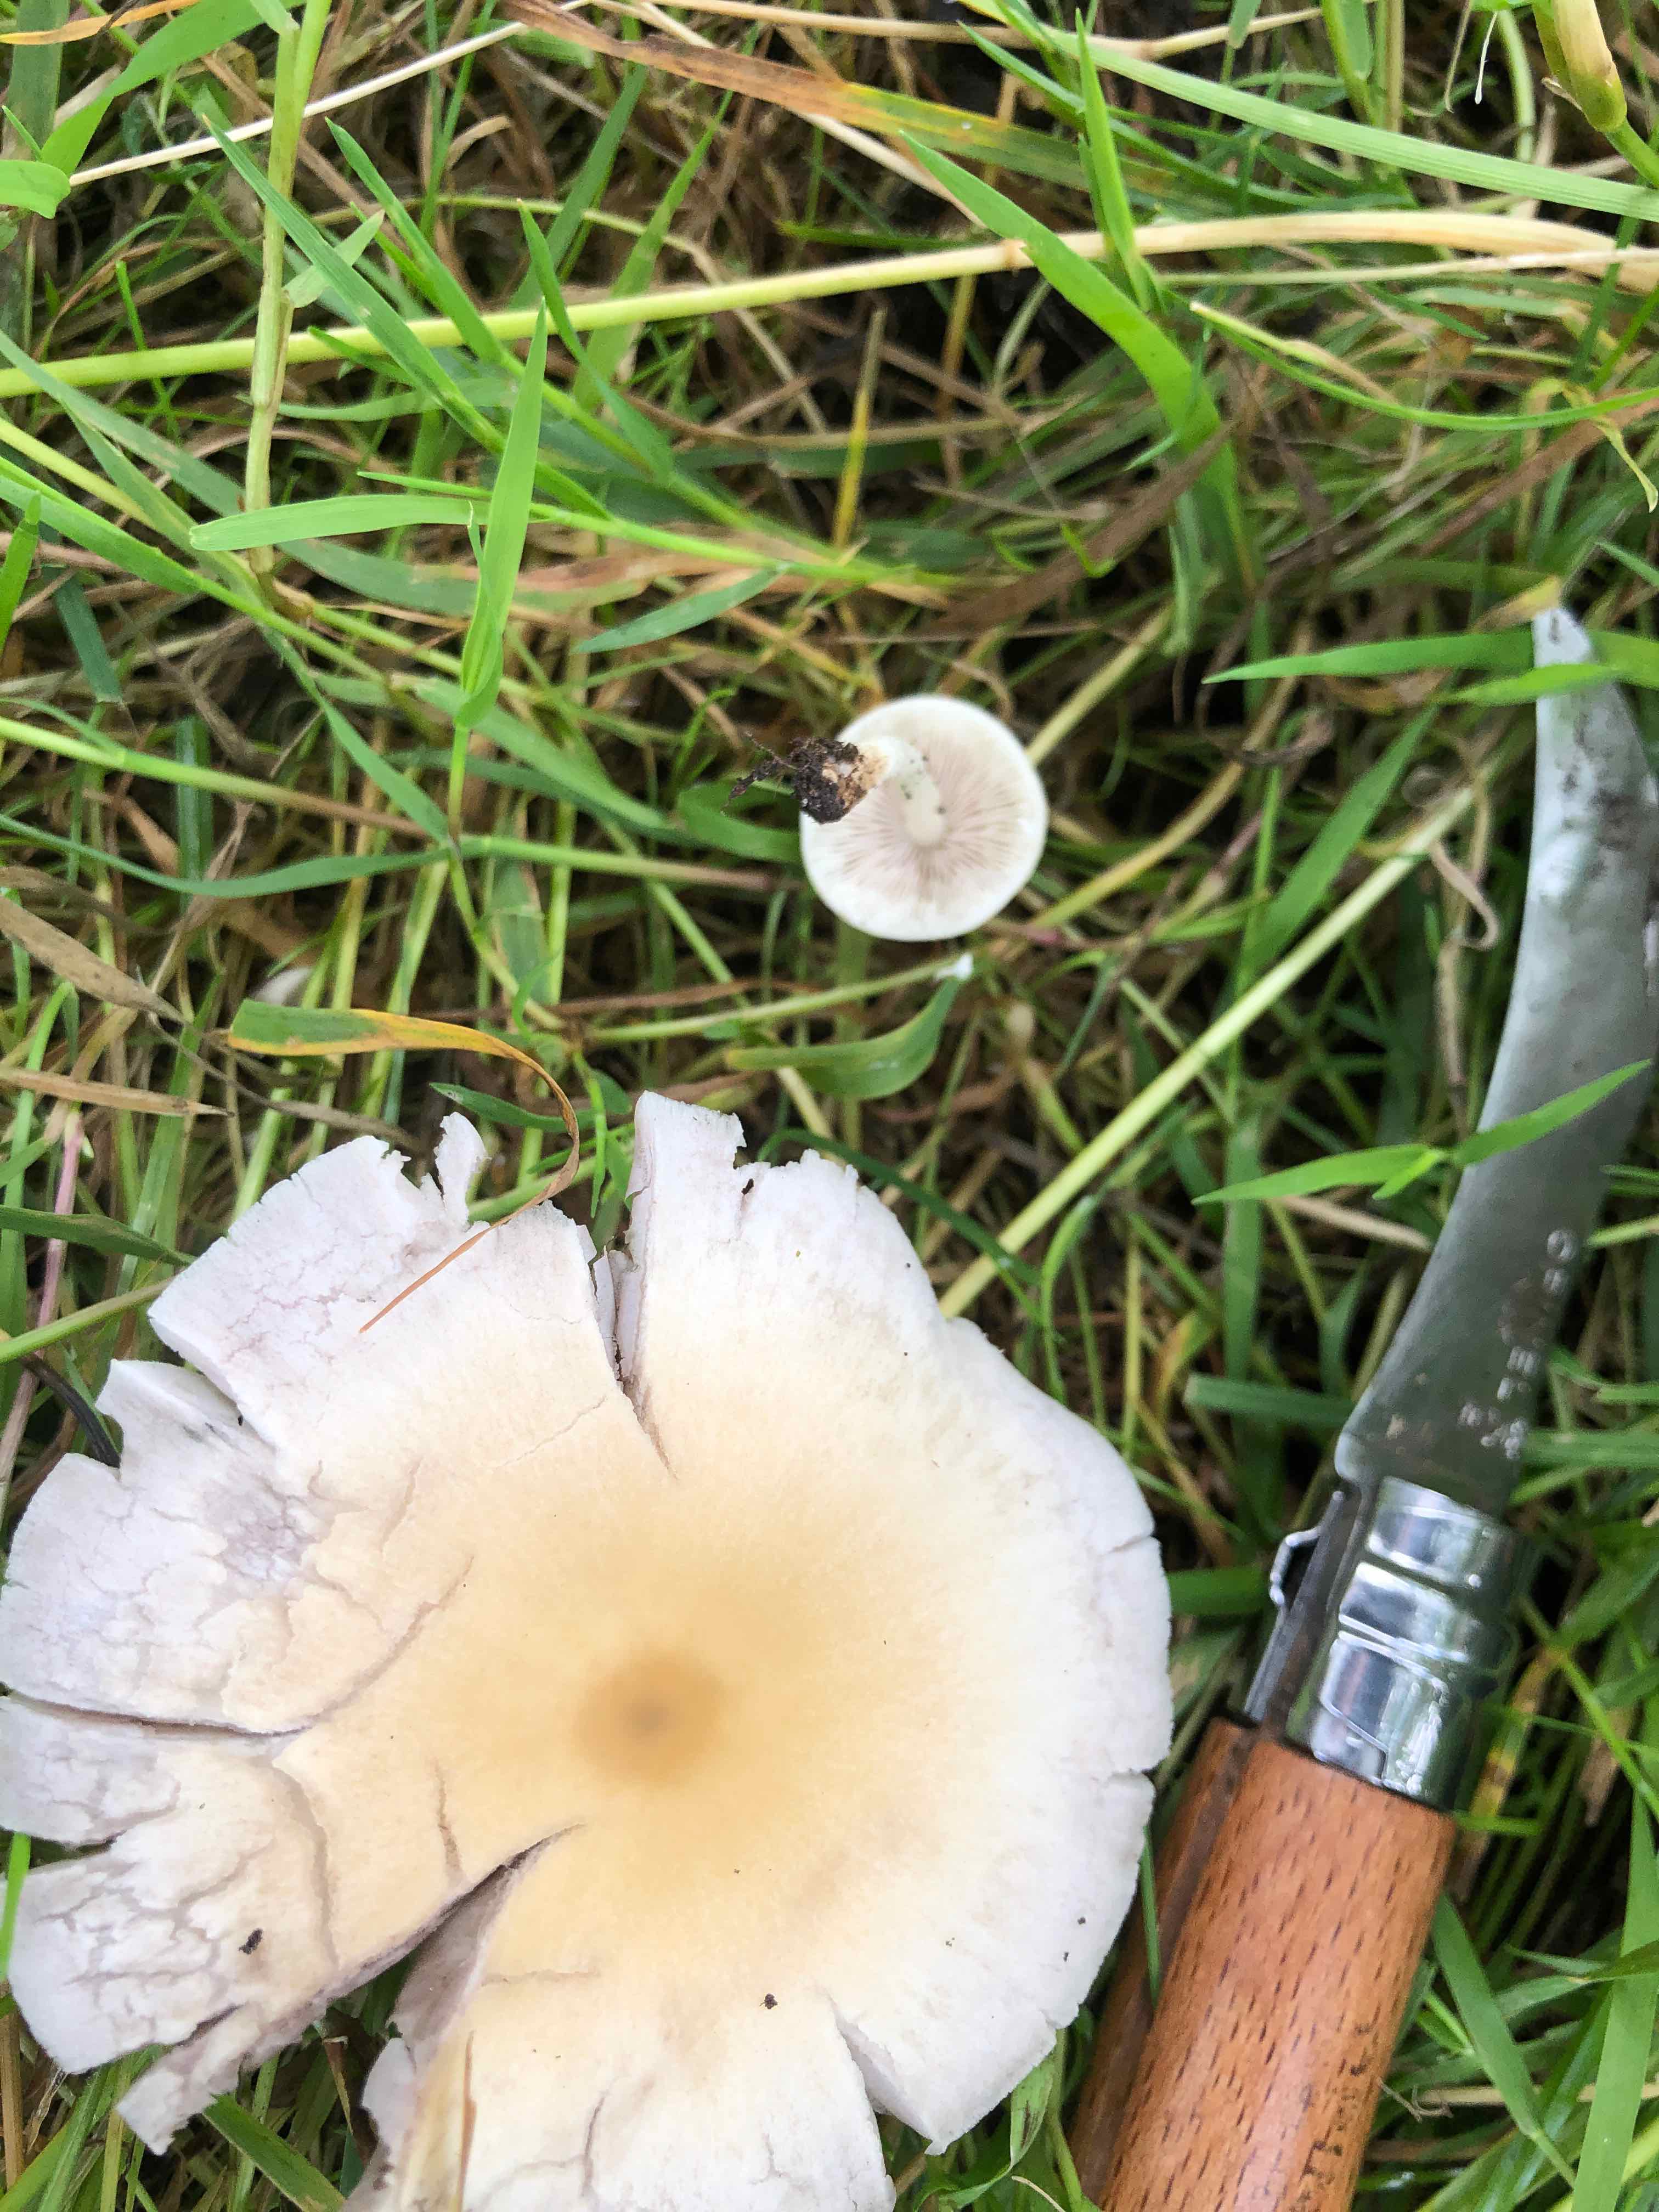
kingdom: Fungi
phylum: Basidiomycota
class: Agaricomycetes
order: Agaricales
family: Psathyrellaceae
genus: Candolleomyces
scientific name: Candolleomyces candolleanus
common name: Candolles mørkhat
